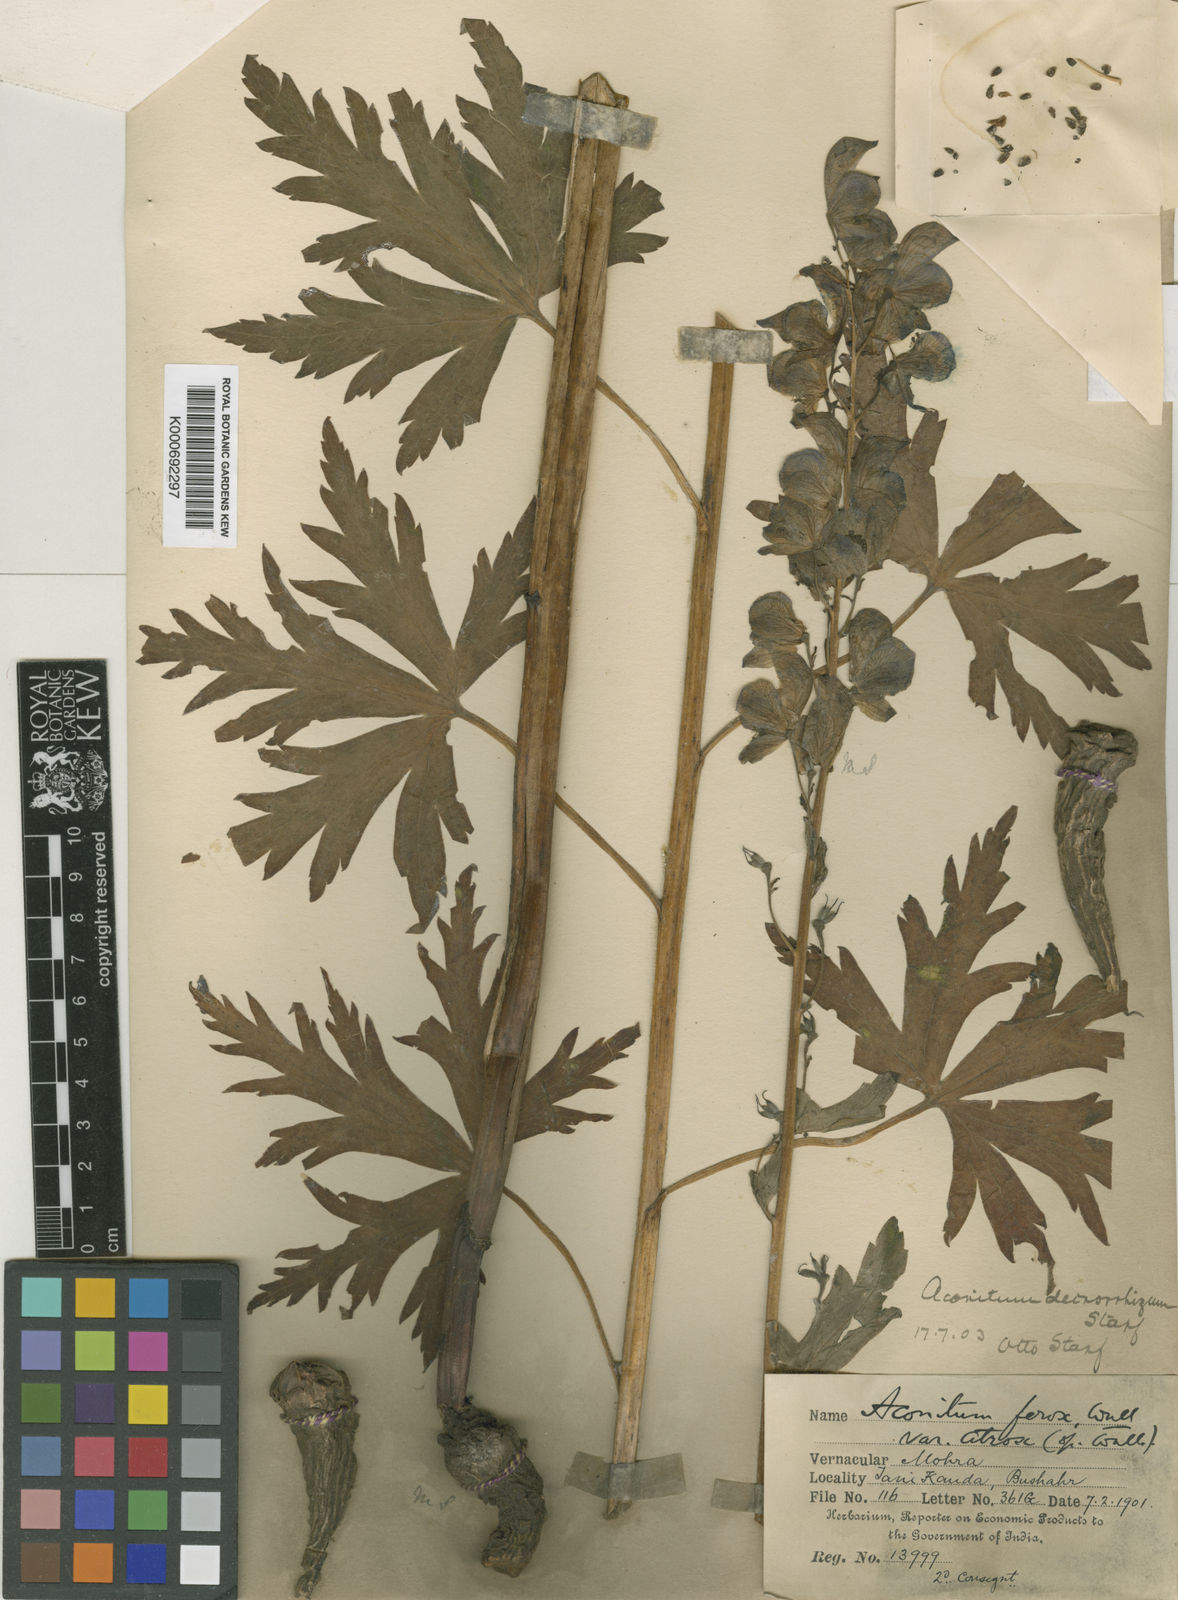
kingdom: Plantae
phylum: Tracheophyta
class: Magnoliopsida
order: Ranunculales
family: Ranunculaceae
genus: Aconitum
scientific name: Aconitum deinorrhizum
